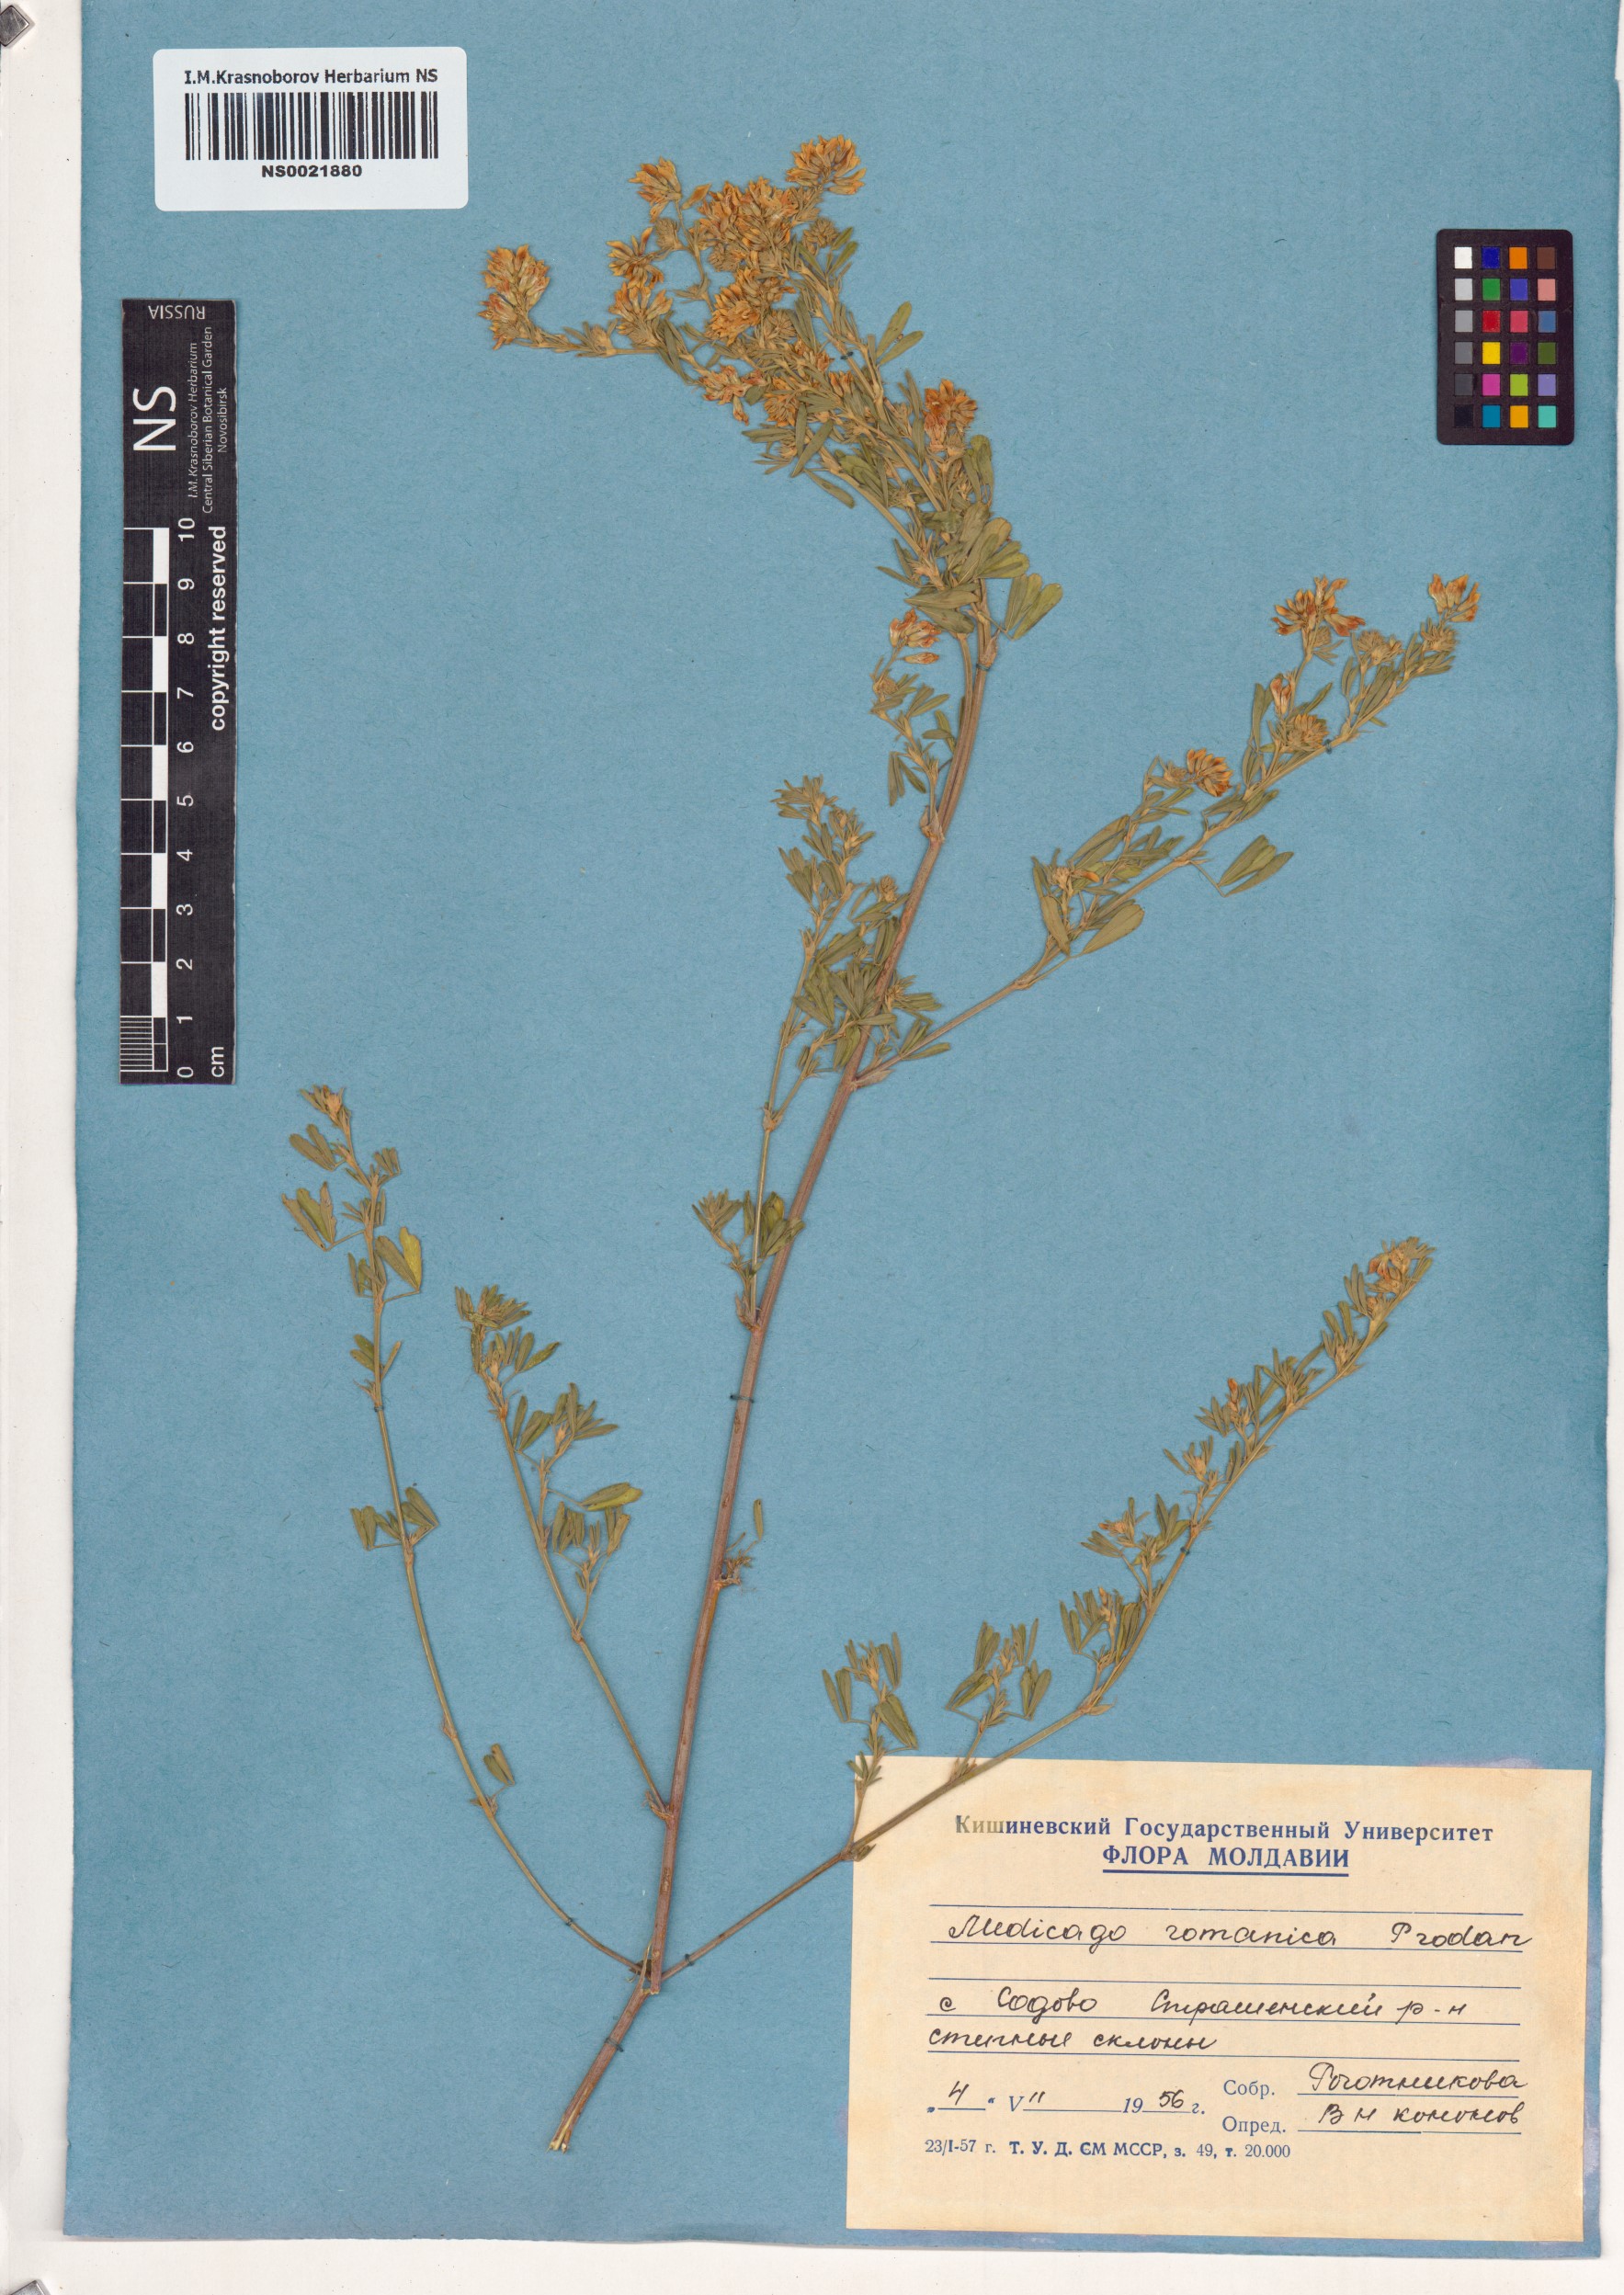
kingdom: Plantae
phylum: Tracheophyta
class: Magnoliopsida
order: Fabales
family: Fabaceae
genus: Medicago
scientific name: Medicago falcata
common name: Sickle medick
